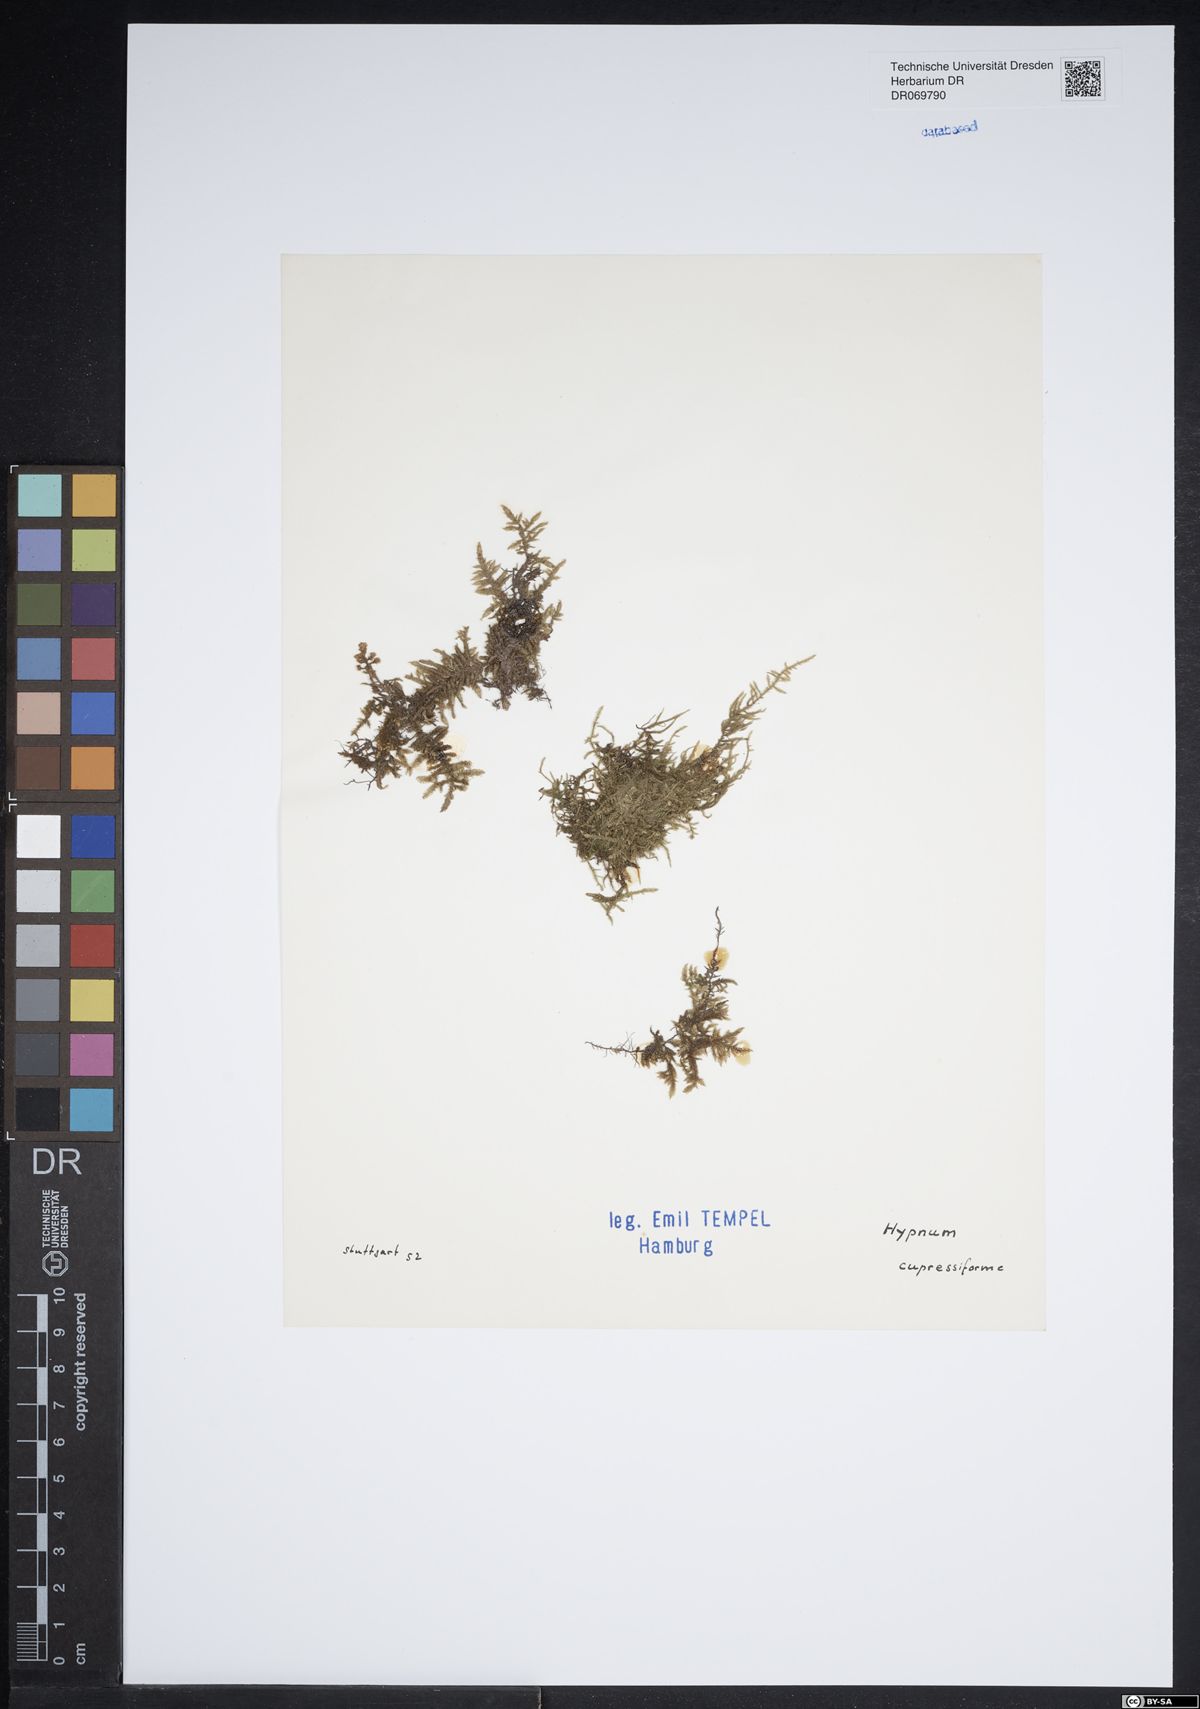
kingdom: Plantae
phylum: Bryophyta
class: Bryopsida
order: Hypnales
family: Hypnaceae
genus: Hypnum
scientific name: Hypnum cupressiforme
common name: Cypress-leaved plait-moss
